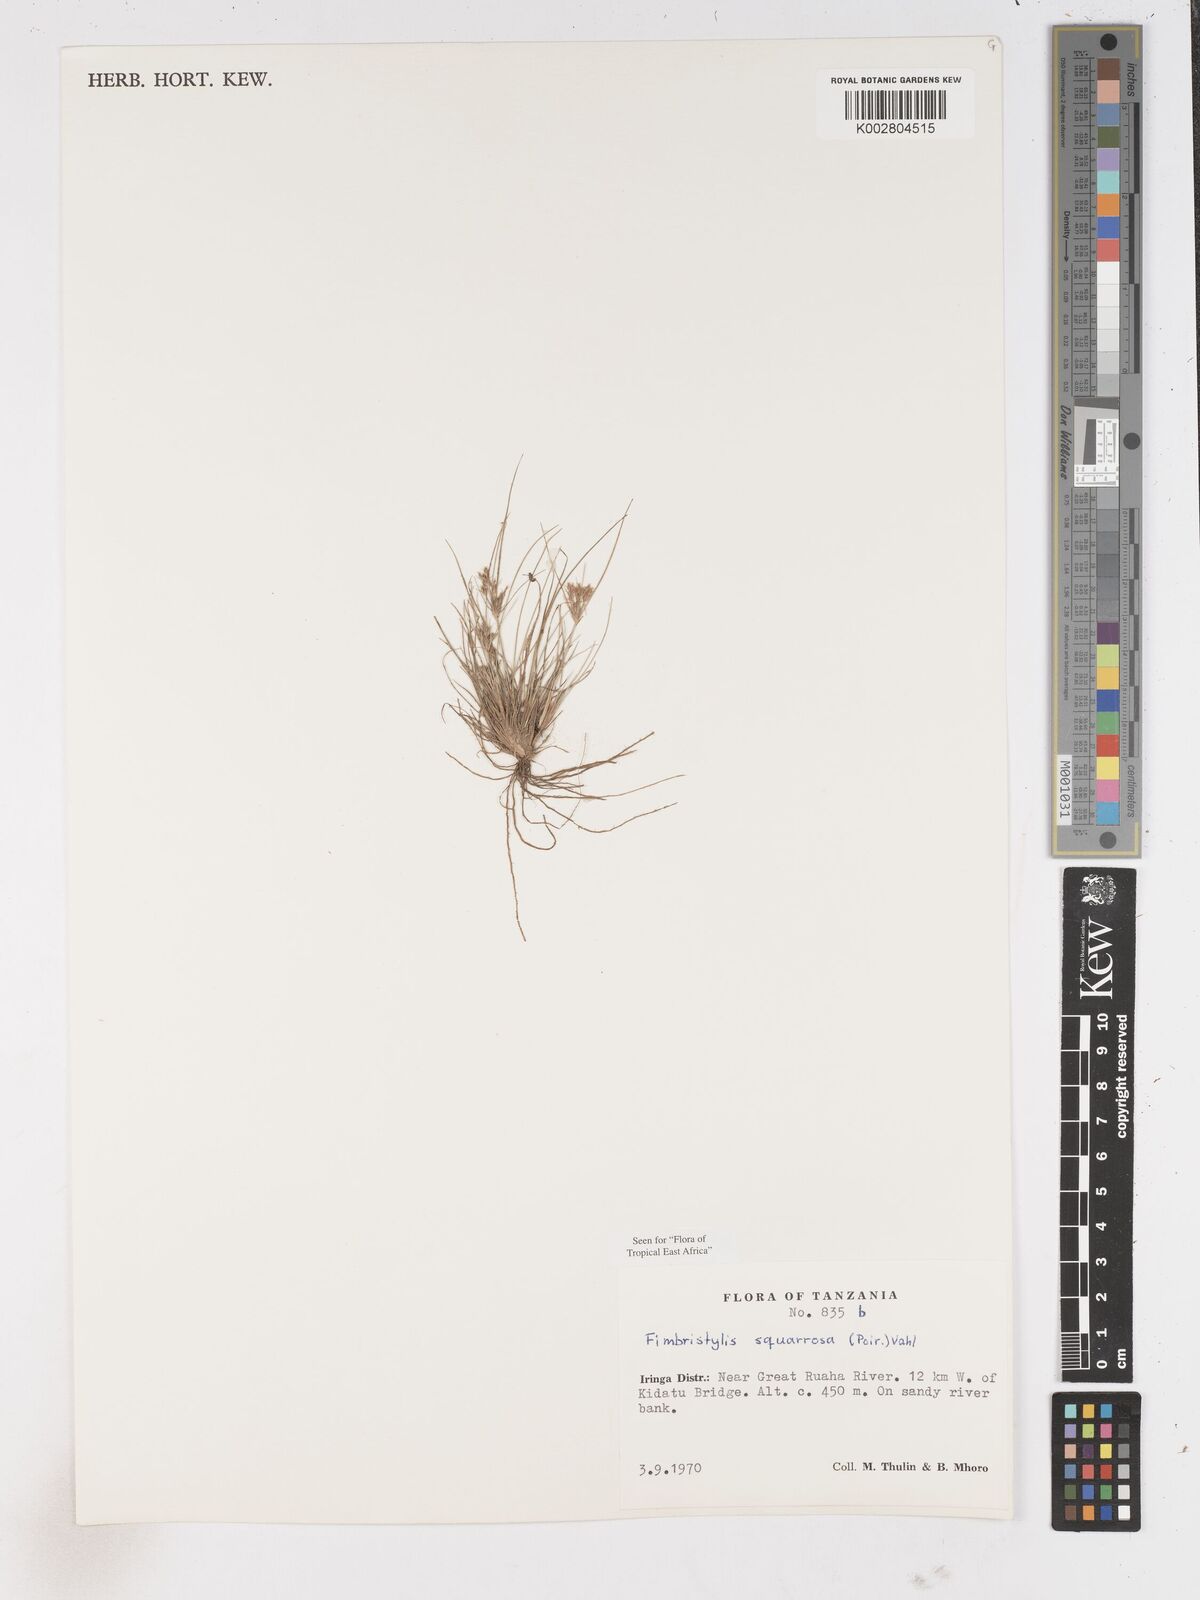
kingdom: Plantae
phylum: Tracheophyta
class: Liliopsida
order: Poales
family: Cyperaceae
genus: Fimbristylis
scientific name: Fimbristylis squarrosa
